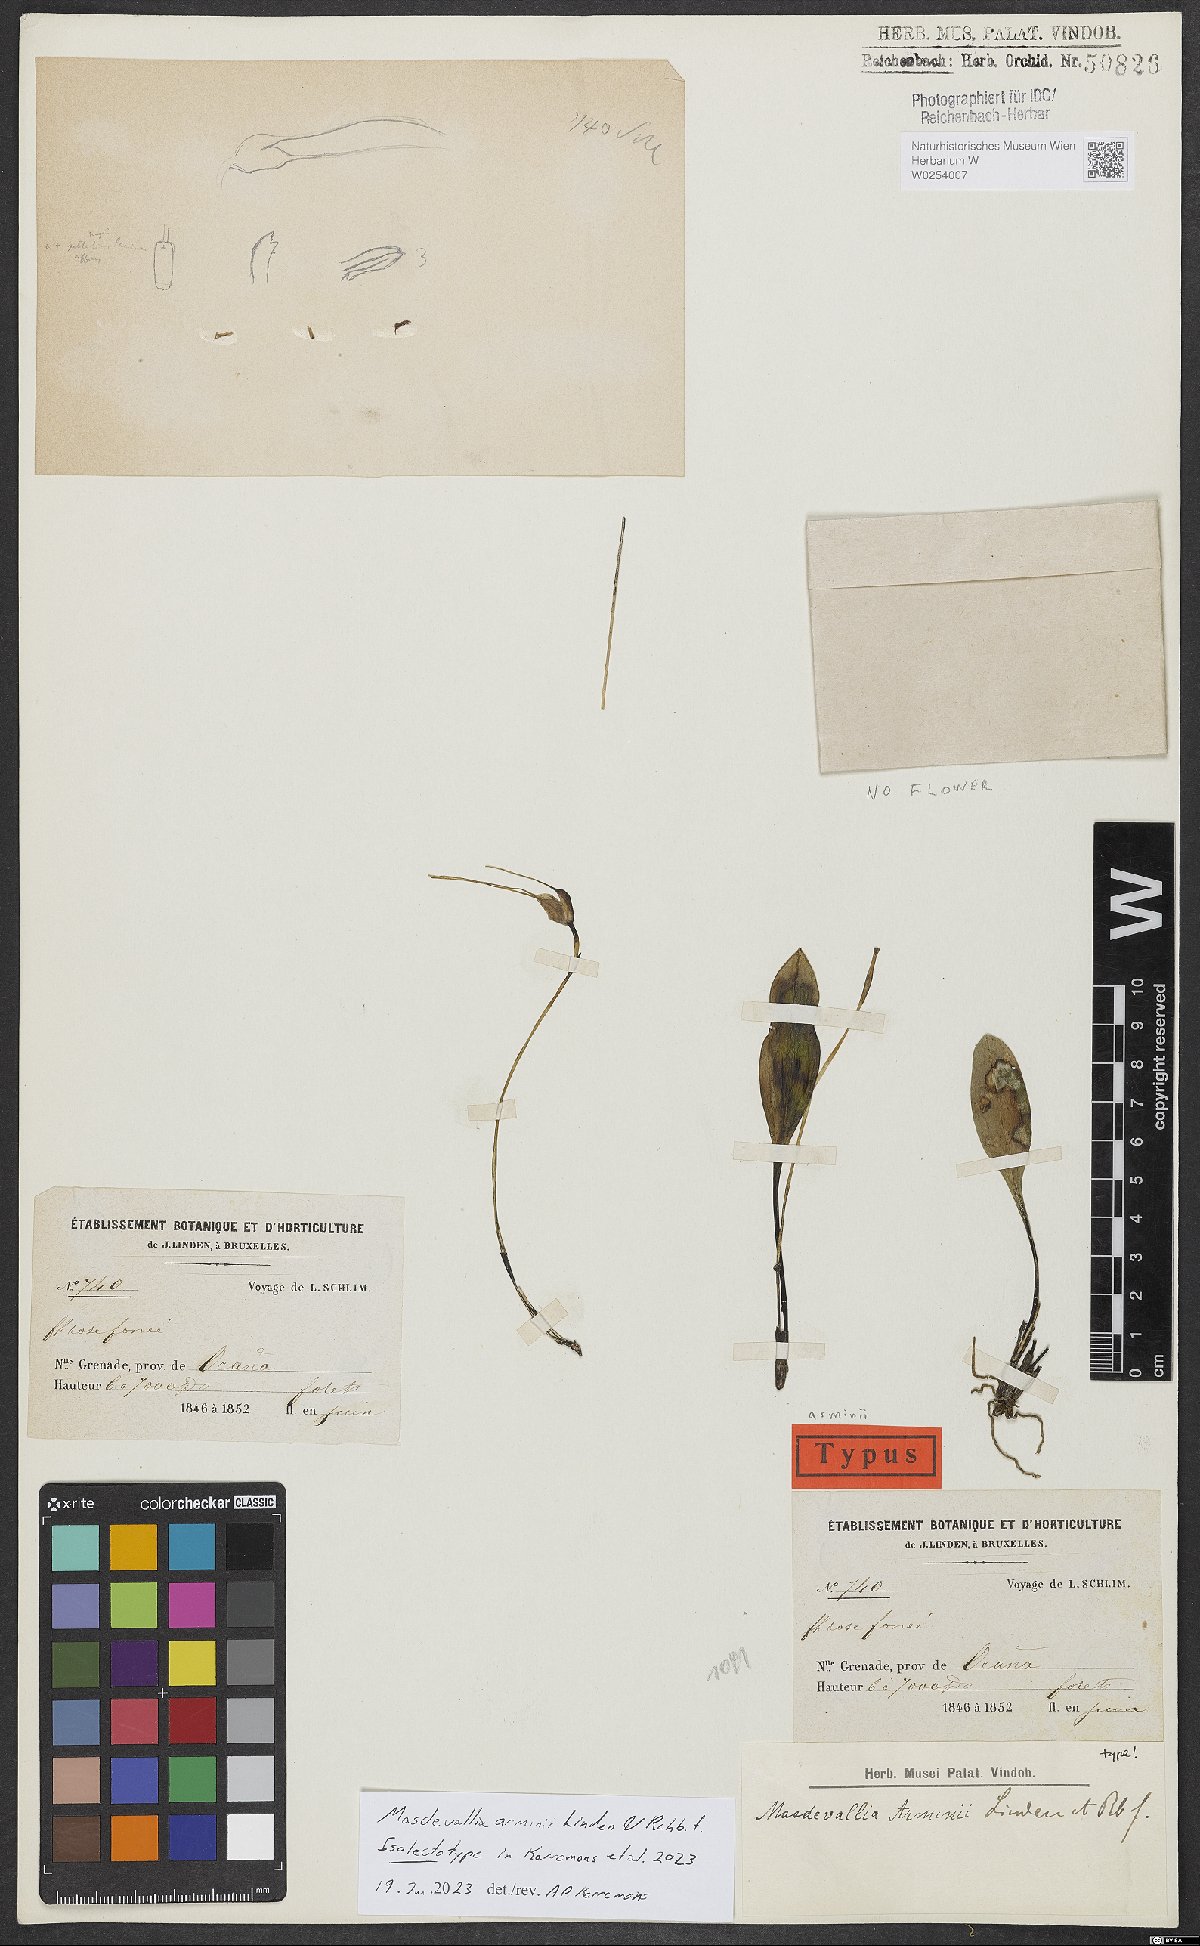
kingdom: Plantae
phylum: Tracheophyta
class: Liliopsida
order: Asparagales
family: Orchidaceae
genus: Masdevallia
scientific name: Masdevallia arminii
